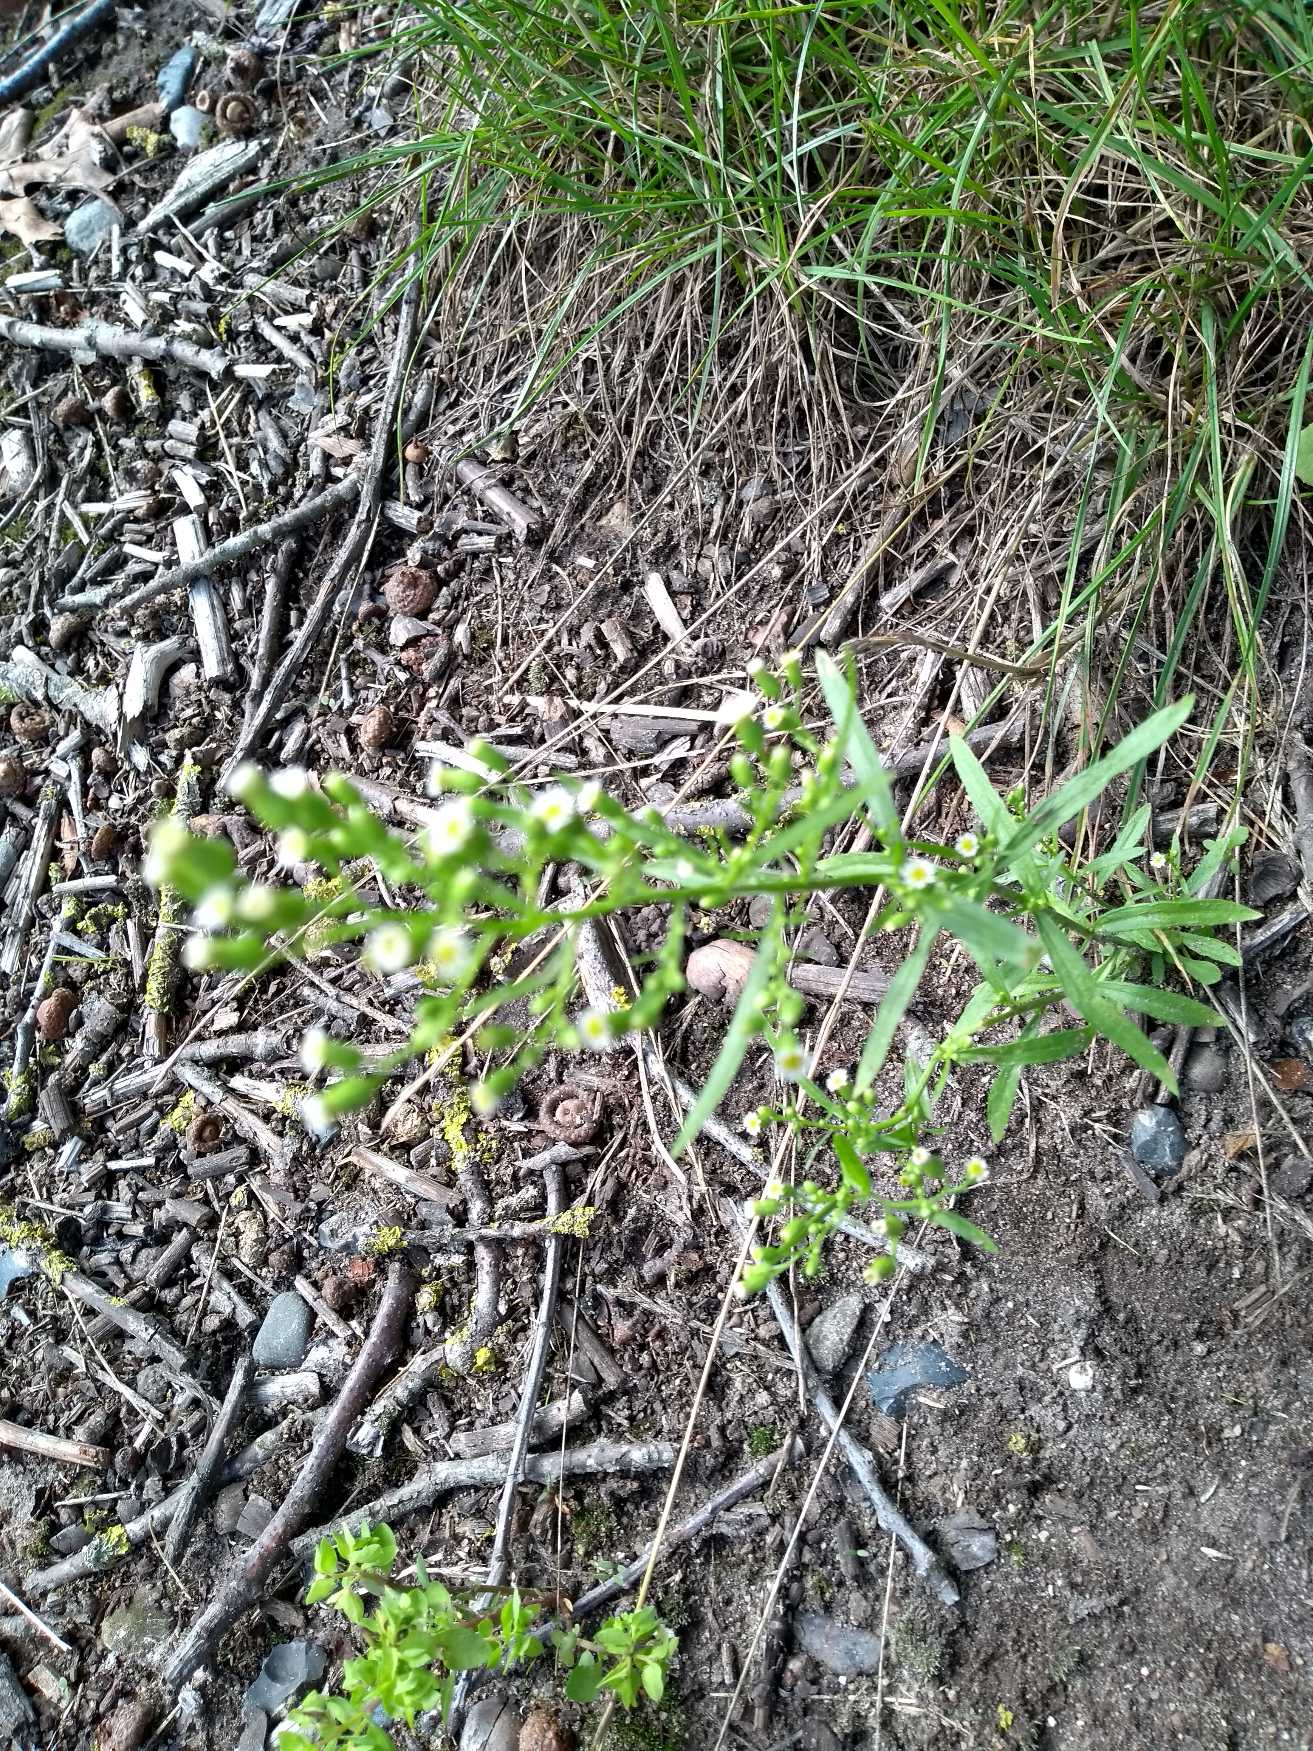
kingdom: Plantae
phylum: Tracheophyta
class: Magnoliopsida
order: Asterales
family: Asteraceae
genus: Erigeron
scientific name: Erigeron canadensis
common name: Kanadisk bakkestjerne
